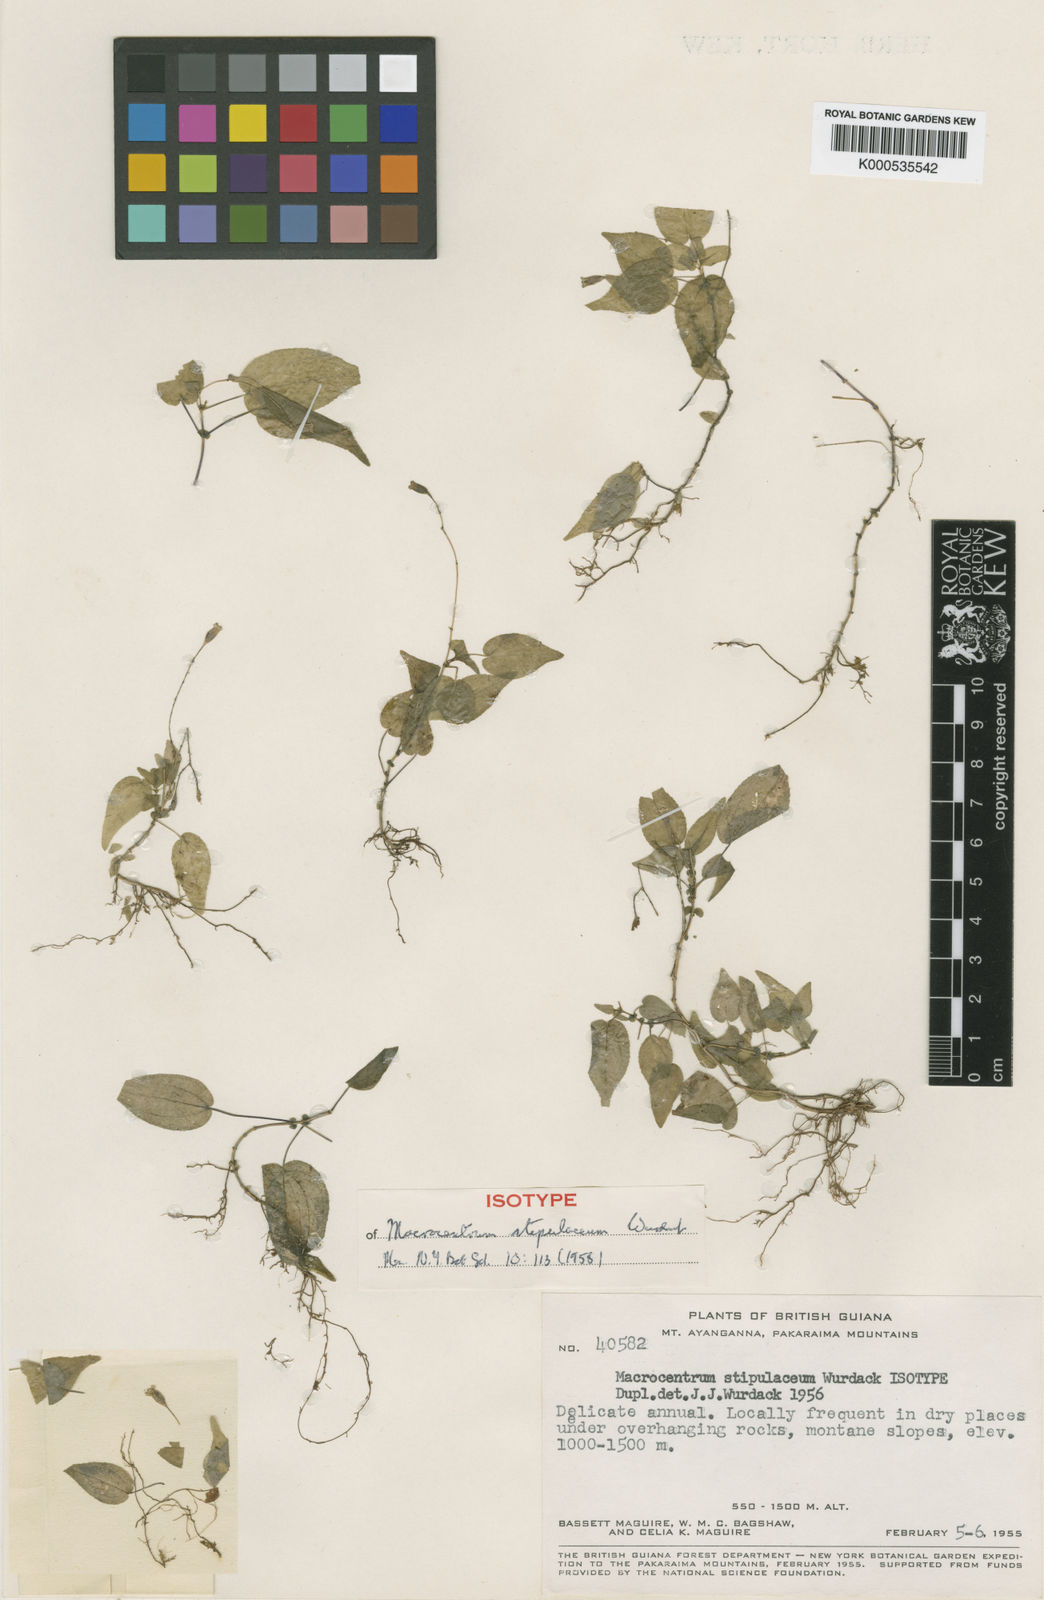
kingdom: Plantae
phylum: Tracheophyta
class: Magnoliopsida
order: Myrtales
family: Melastomataceae
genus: Macrocentrum
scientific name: Macrocentrum stipulaceum
